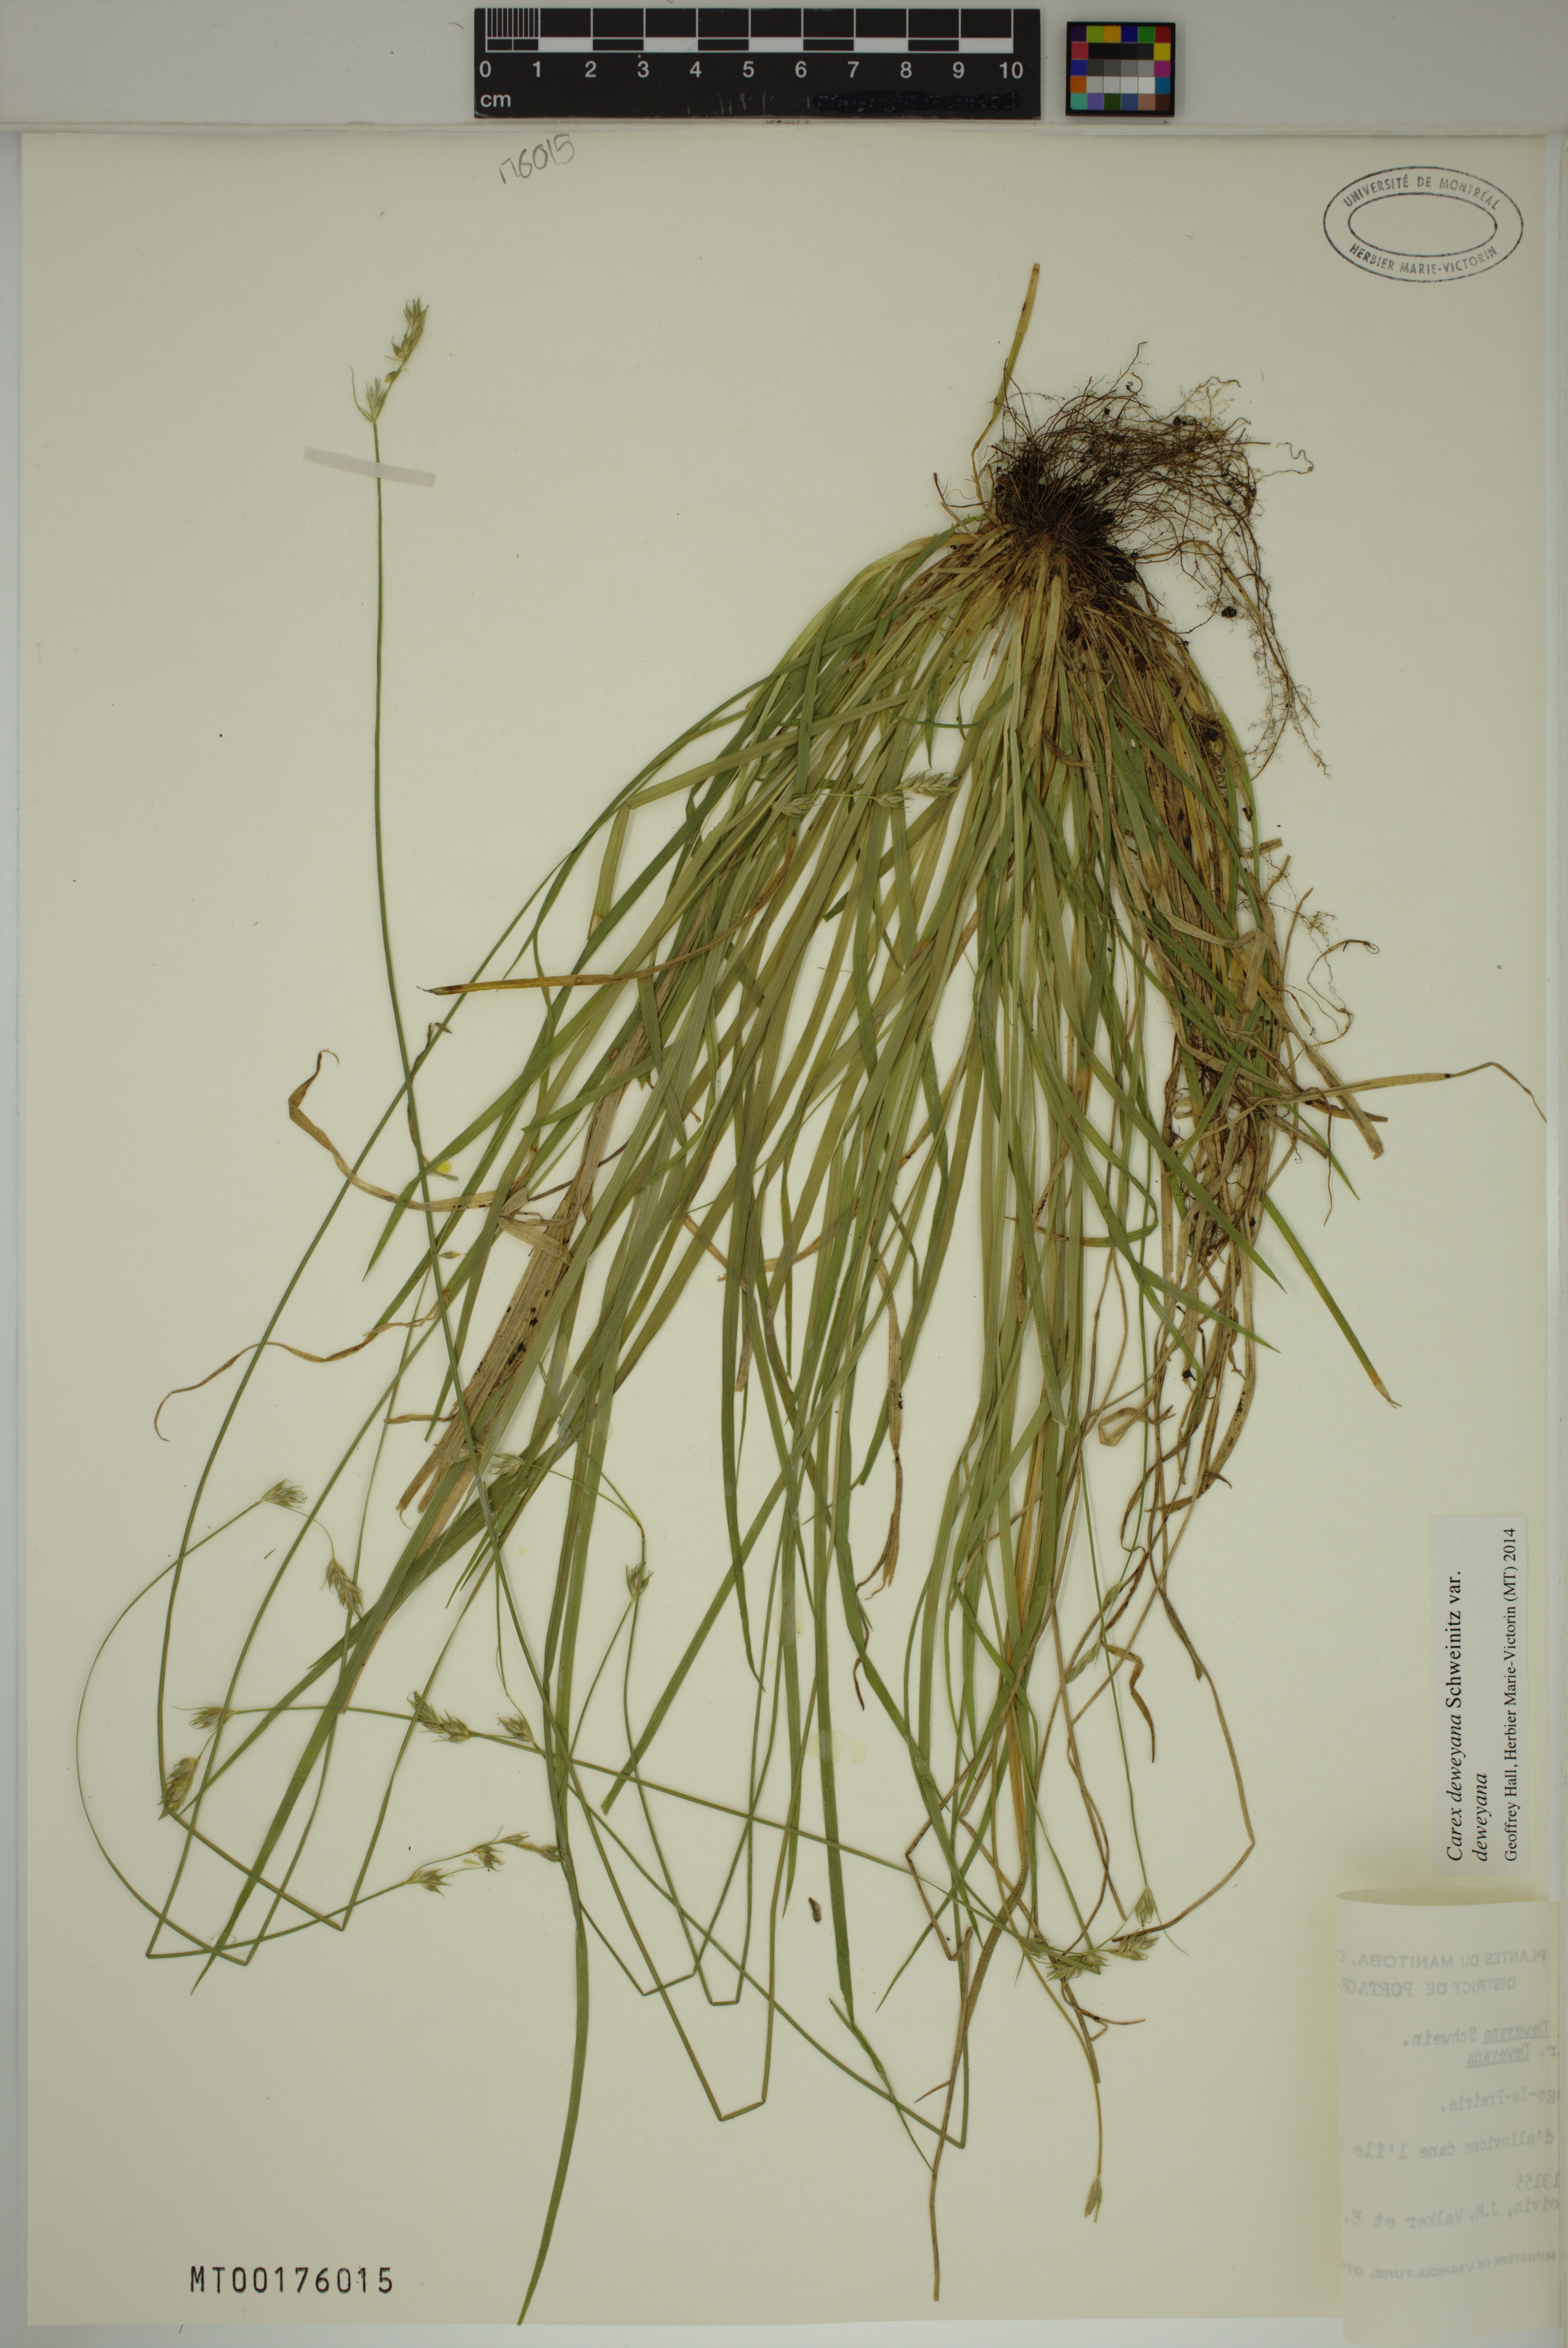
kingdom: Plantae
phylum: Tracheophyta
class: Liliopsida
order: Poales
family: Cyperaceae
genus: Carex
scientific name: Carex deweyana
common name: Dewey's sedge
